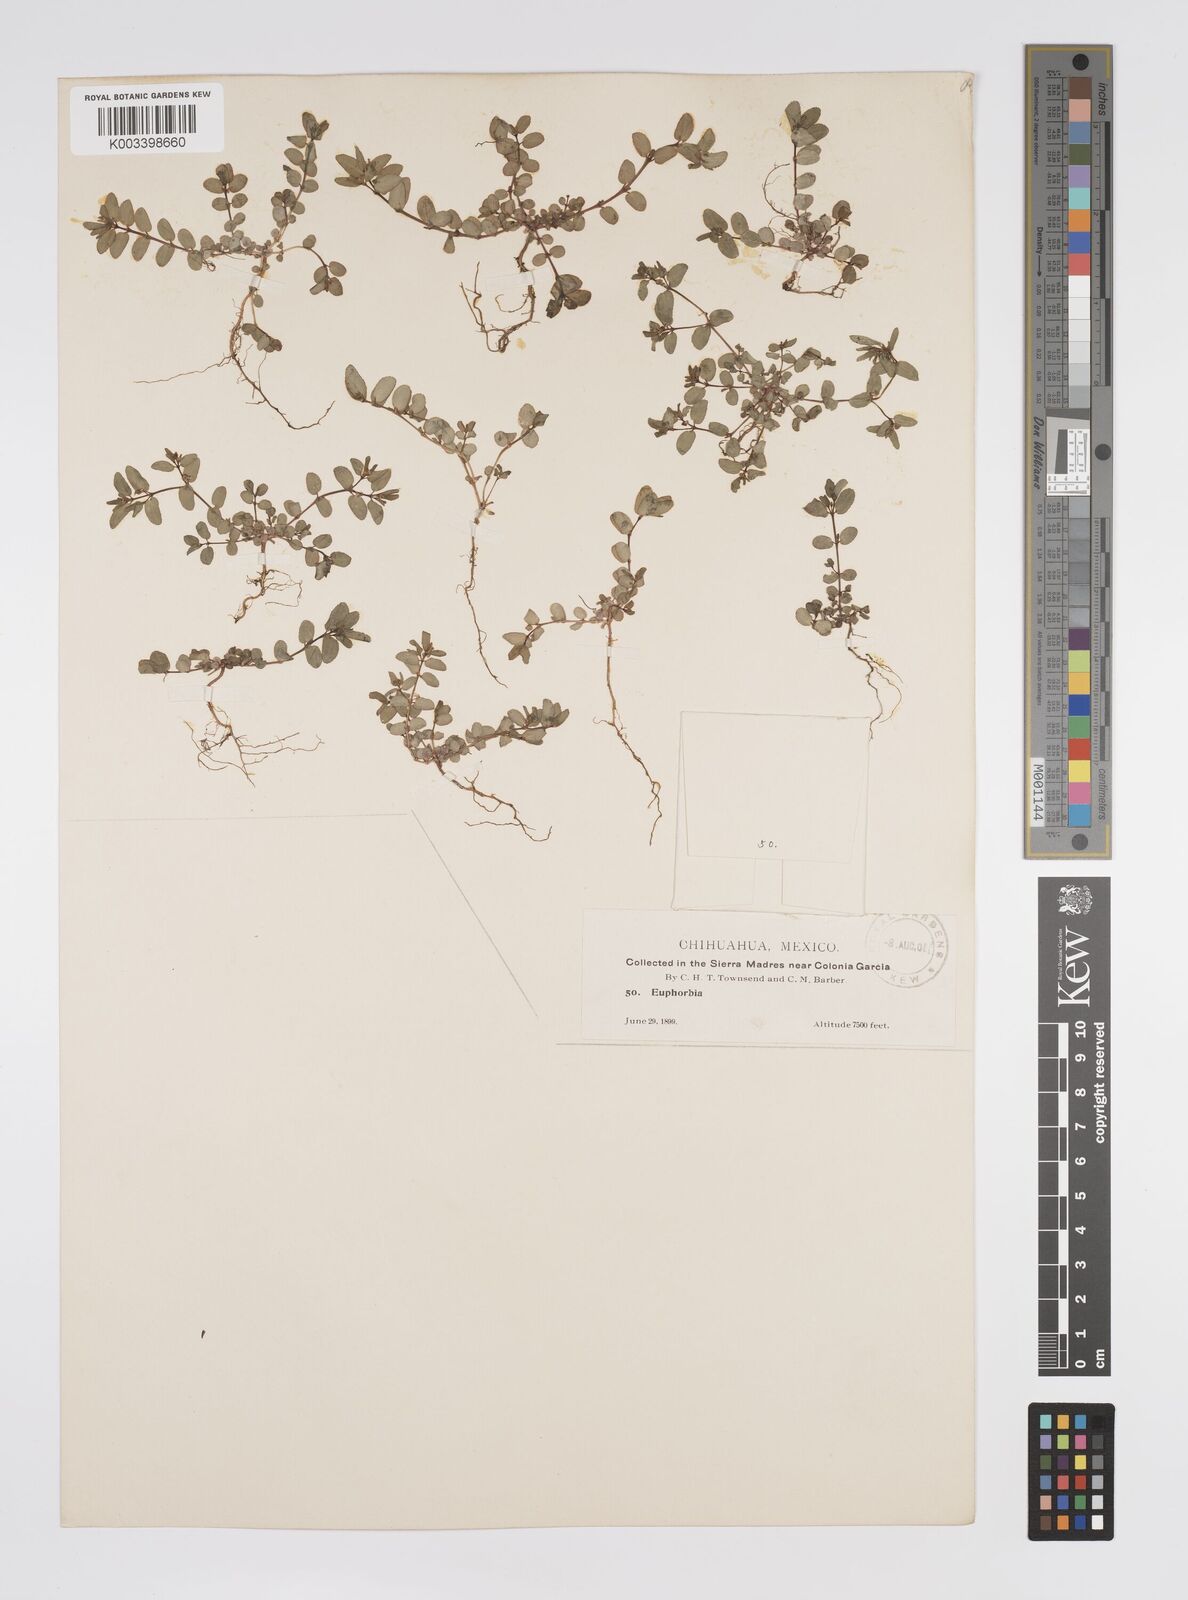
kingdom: Plantae
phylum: Tracheophyta
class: Magnoliopsida
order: Malpighiales
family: Euphorbiaceae
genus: Euphorbia
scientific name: Euphorbia
